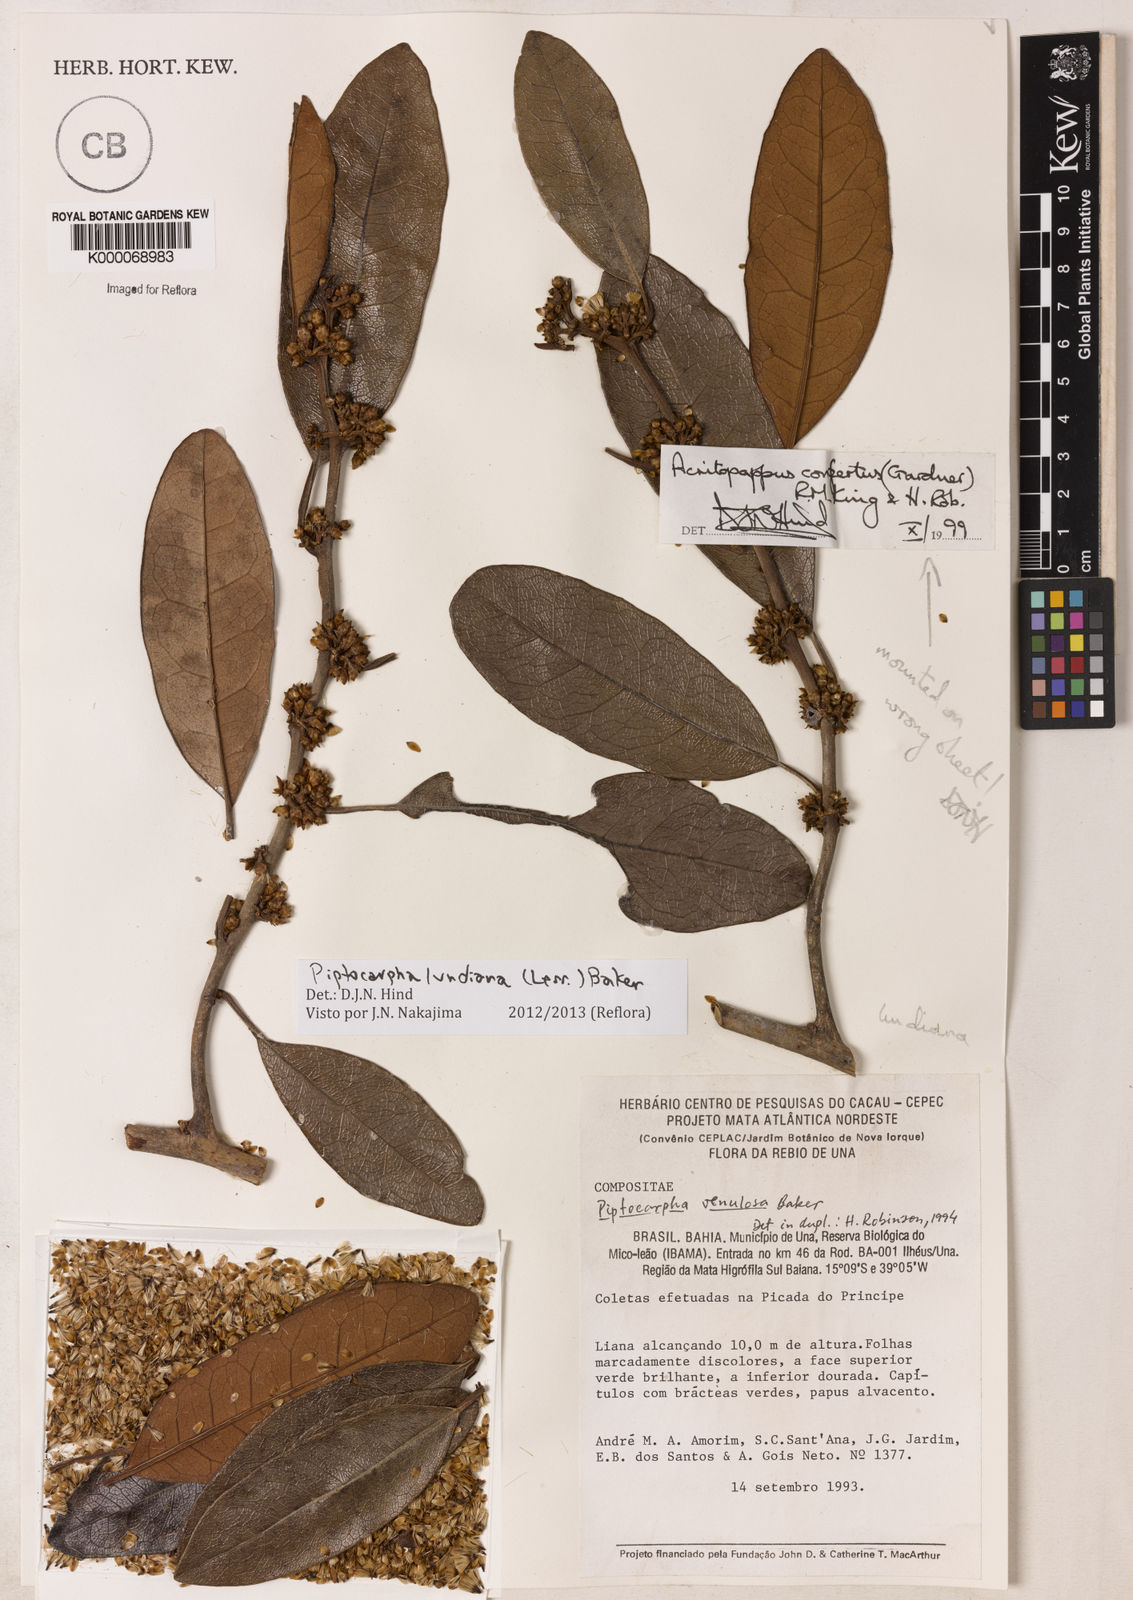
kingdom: Plantae
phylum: Tracheophyta
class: Magnoliopsida
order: Asterales
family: Asteraceae
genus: Piptocarpha
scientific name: Piptocarpha venulosa
